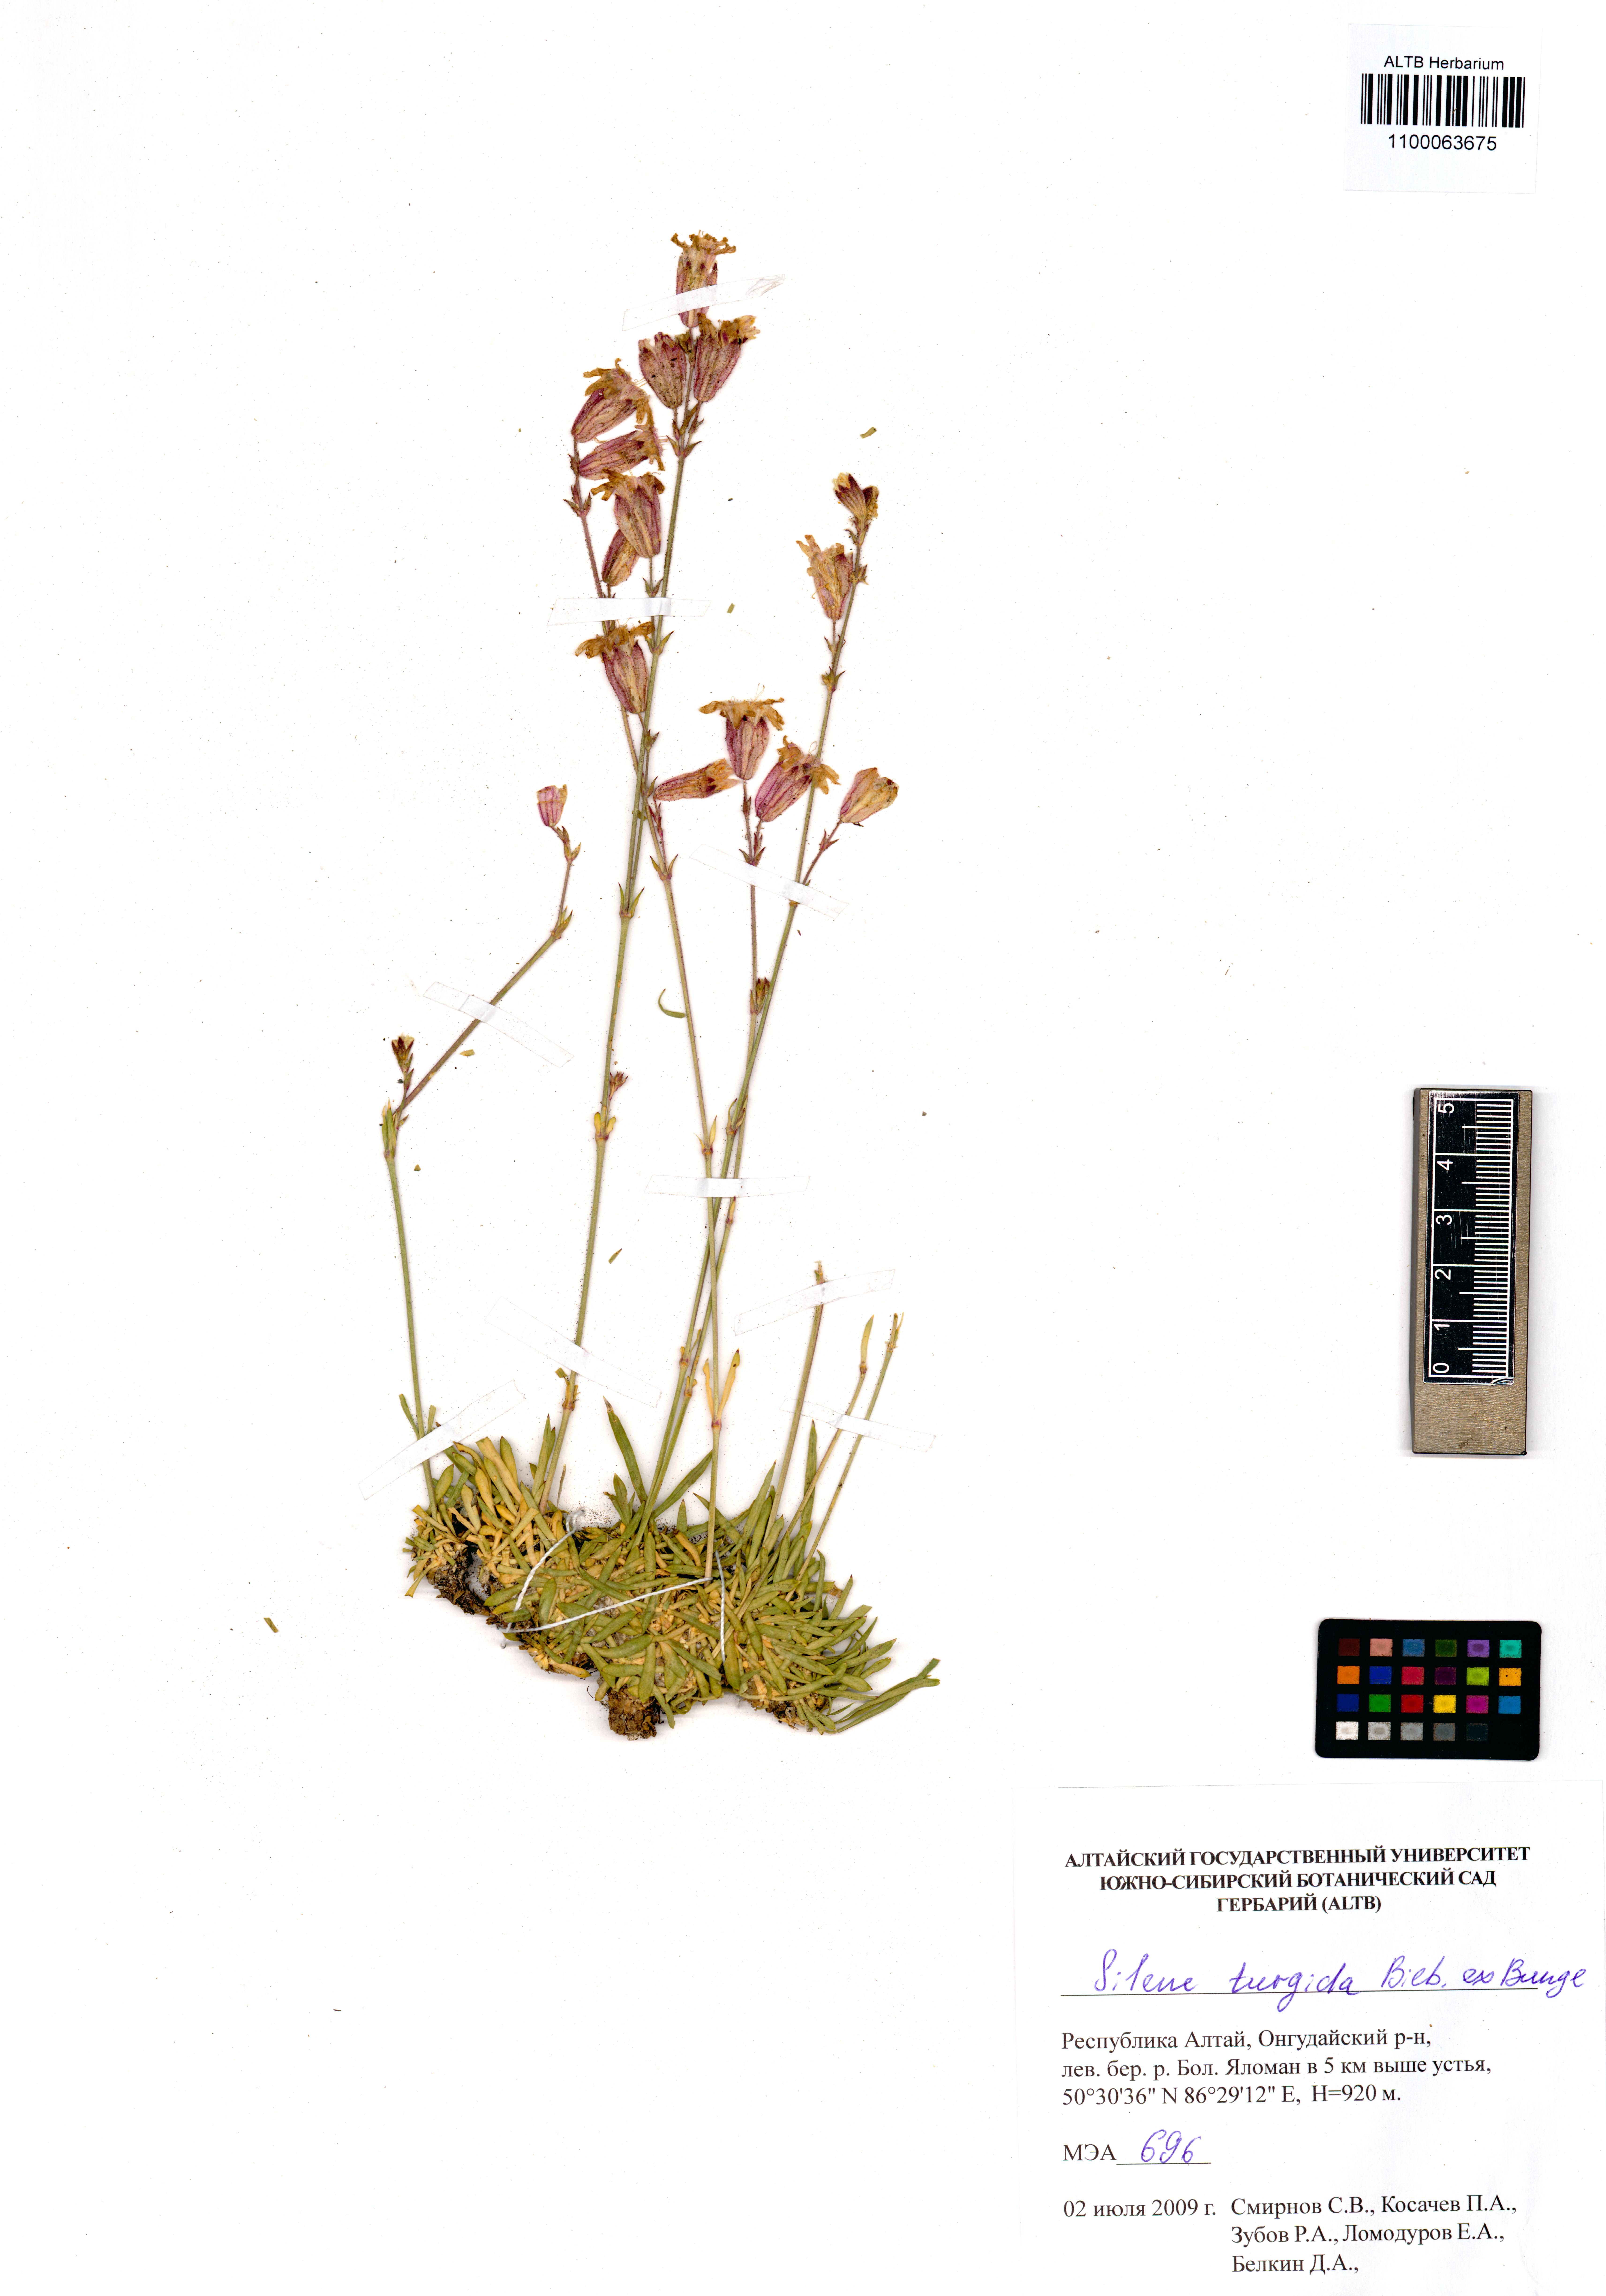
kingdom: Plantae
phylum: Tracheophyta
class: Magnoliopsida
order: Caryophyllales
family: Caryophyllaceae
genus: Silene
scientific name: Silene turgida
